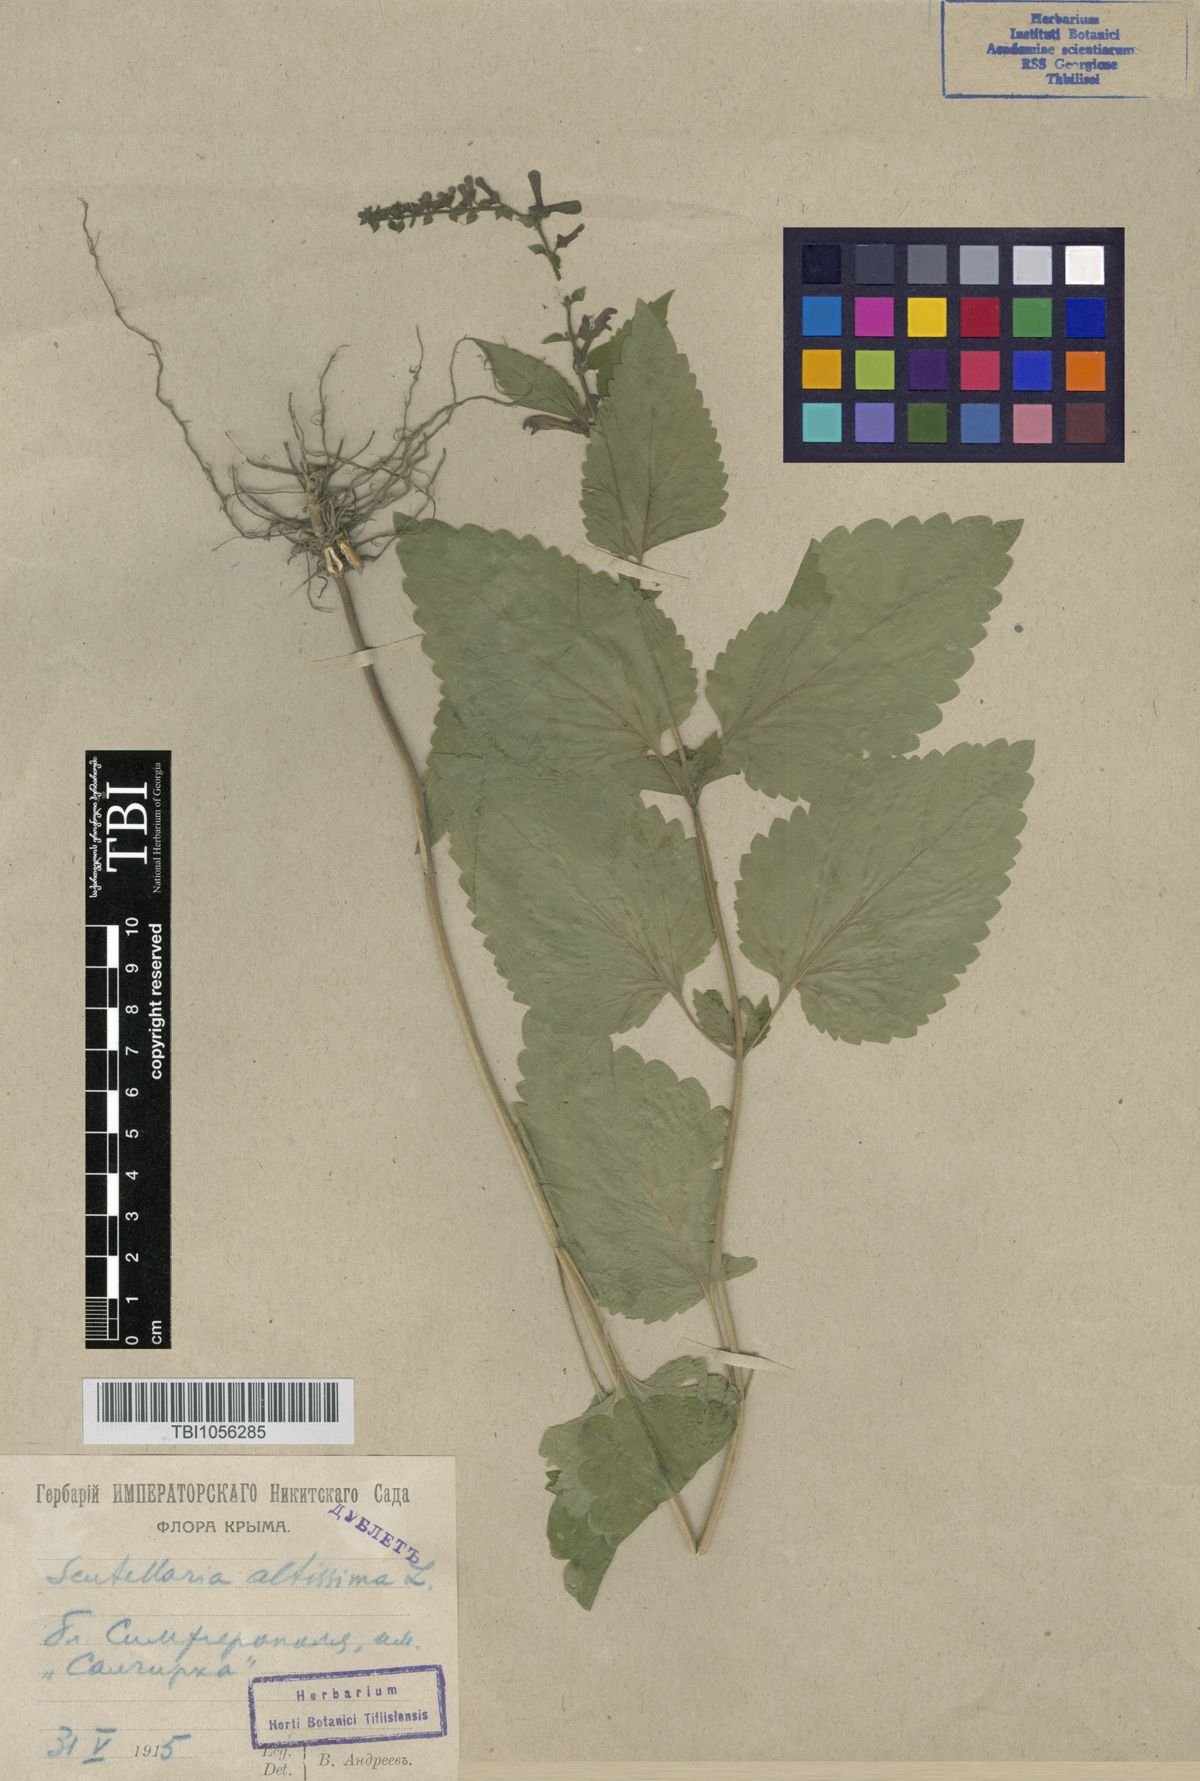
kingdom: Plantae
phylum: Tracheophyta
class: Magnoliopsida
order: Lamiales
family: Lamiaceae
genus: Scutellaria
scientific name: Scutellaria altissima
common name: Somerset skullcap
